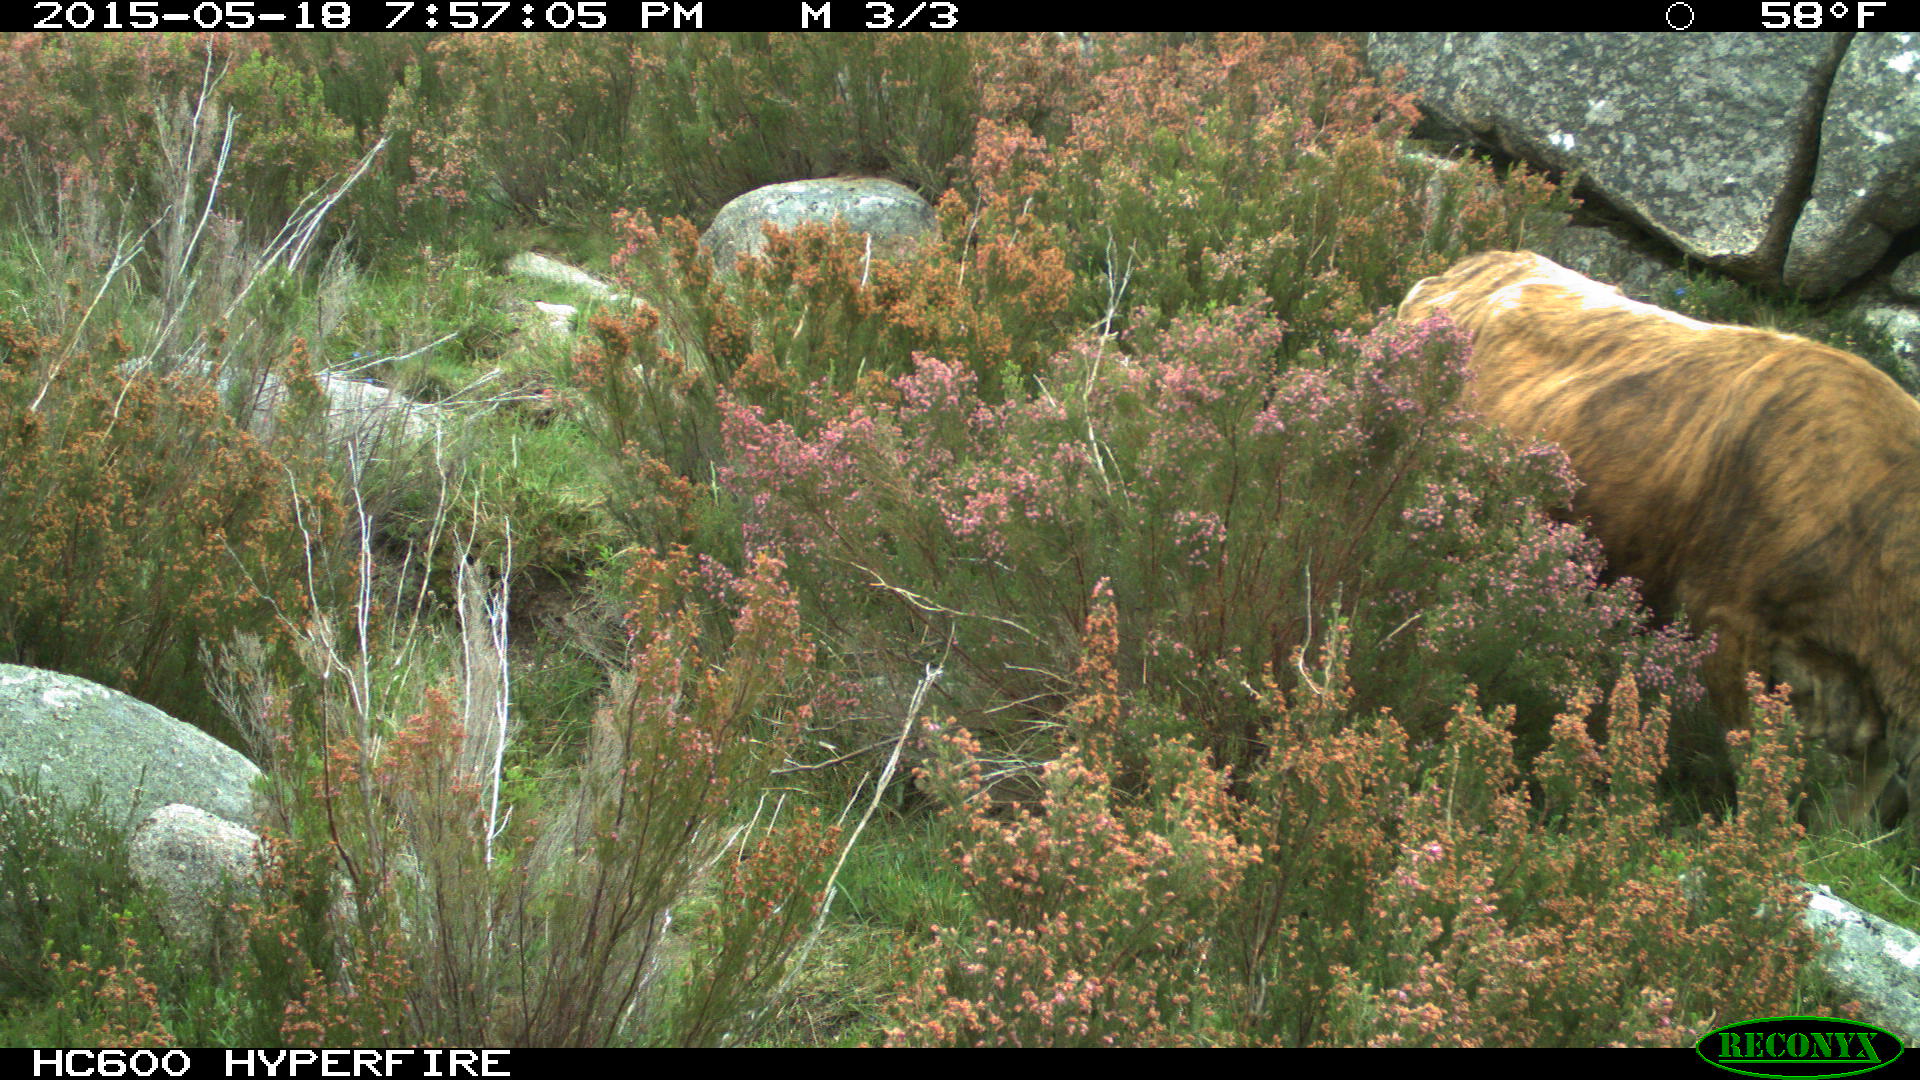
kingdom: Animalia
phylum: Chordata
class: Mammalia
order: Artiodactyla
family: Bovidae
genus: Bos
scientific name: Bos taurus
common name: Domesticated cattle
